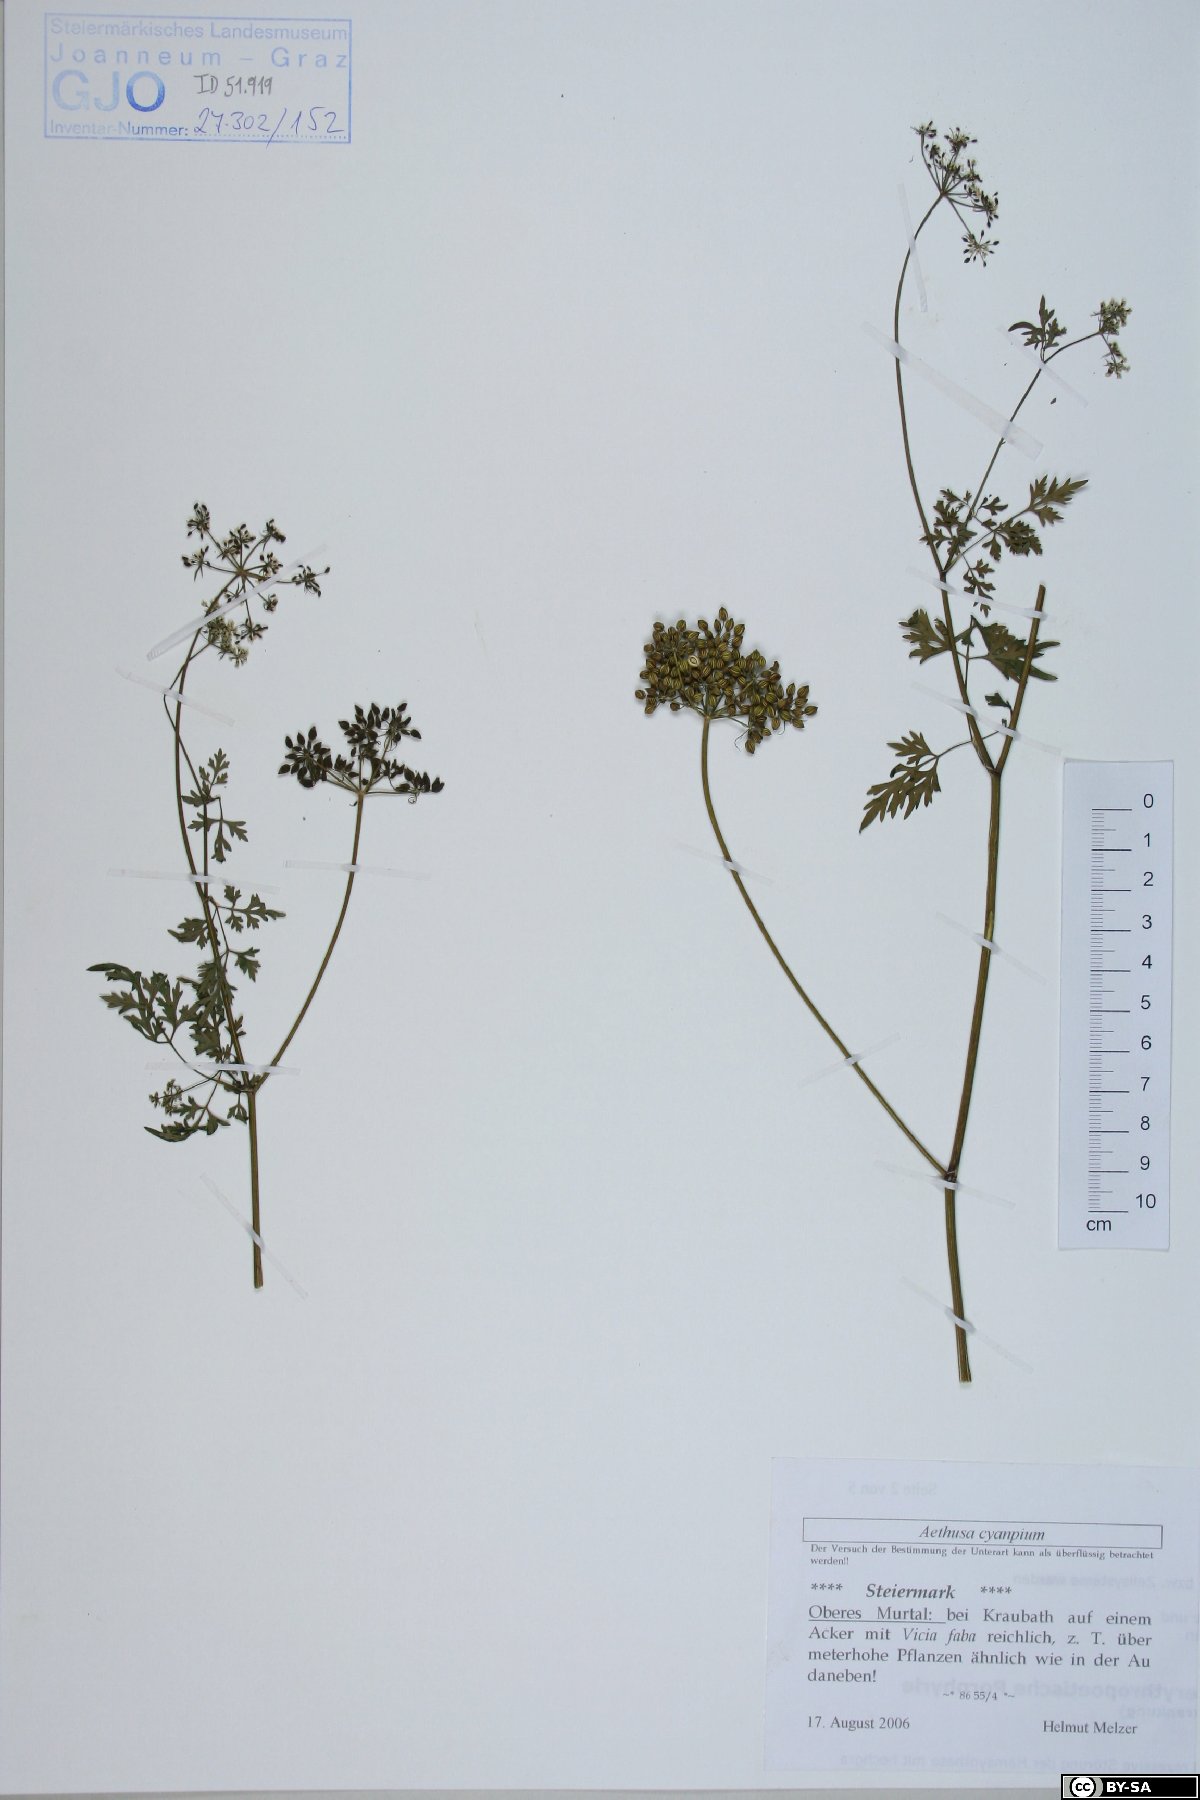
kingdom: Plantae
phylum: Tracheophyta
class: Magnoliopsida
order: Apiales
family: Apiaceae
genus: Aethusa
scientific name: Aethusa cynapium
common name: Fool's parsley
